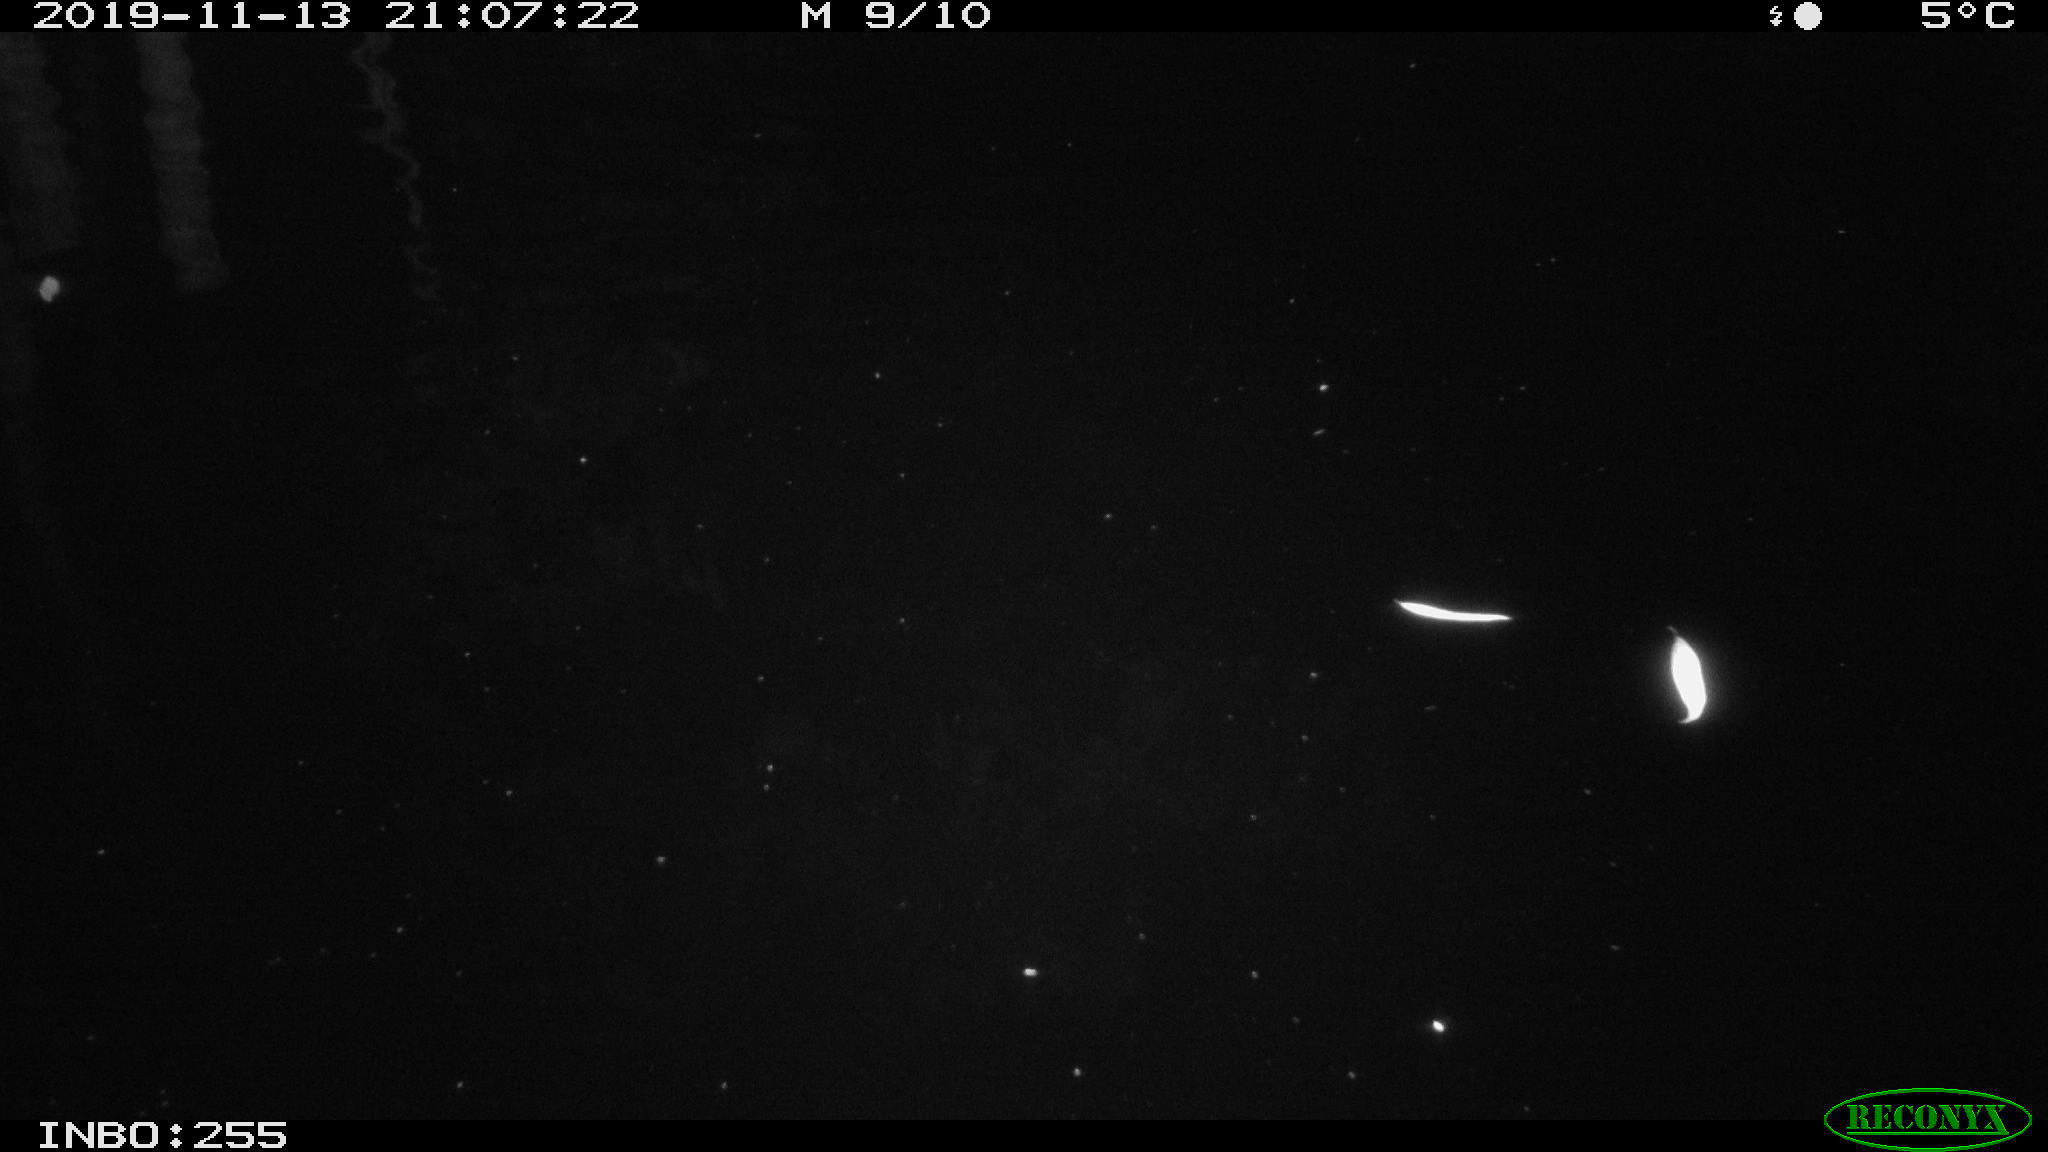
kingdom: Animalia
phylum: Chordata
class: Mammalia
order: Rodentia
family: Muridae
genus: Rattus
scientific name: Rattus norvegicus
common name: Brown rat
